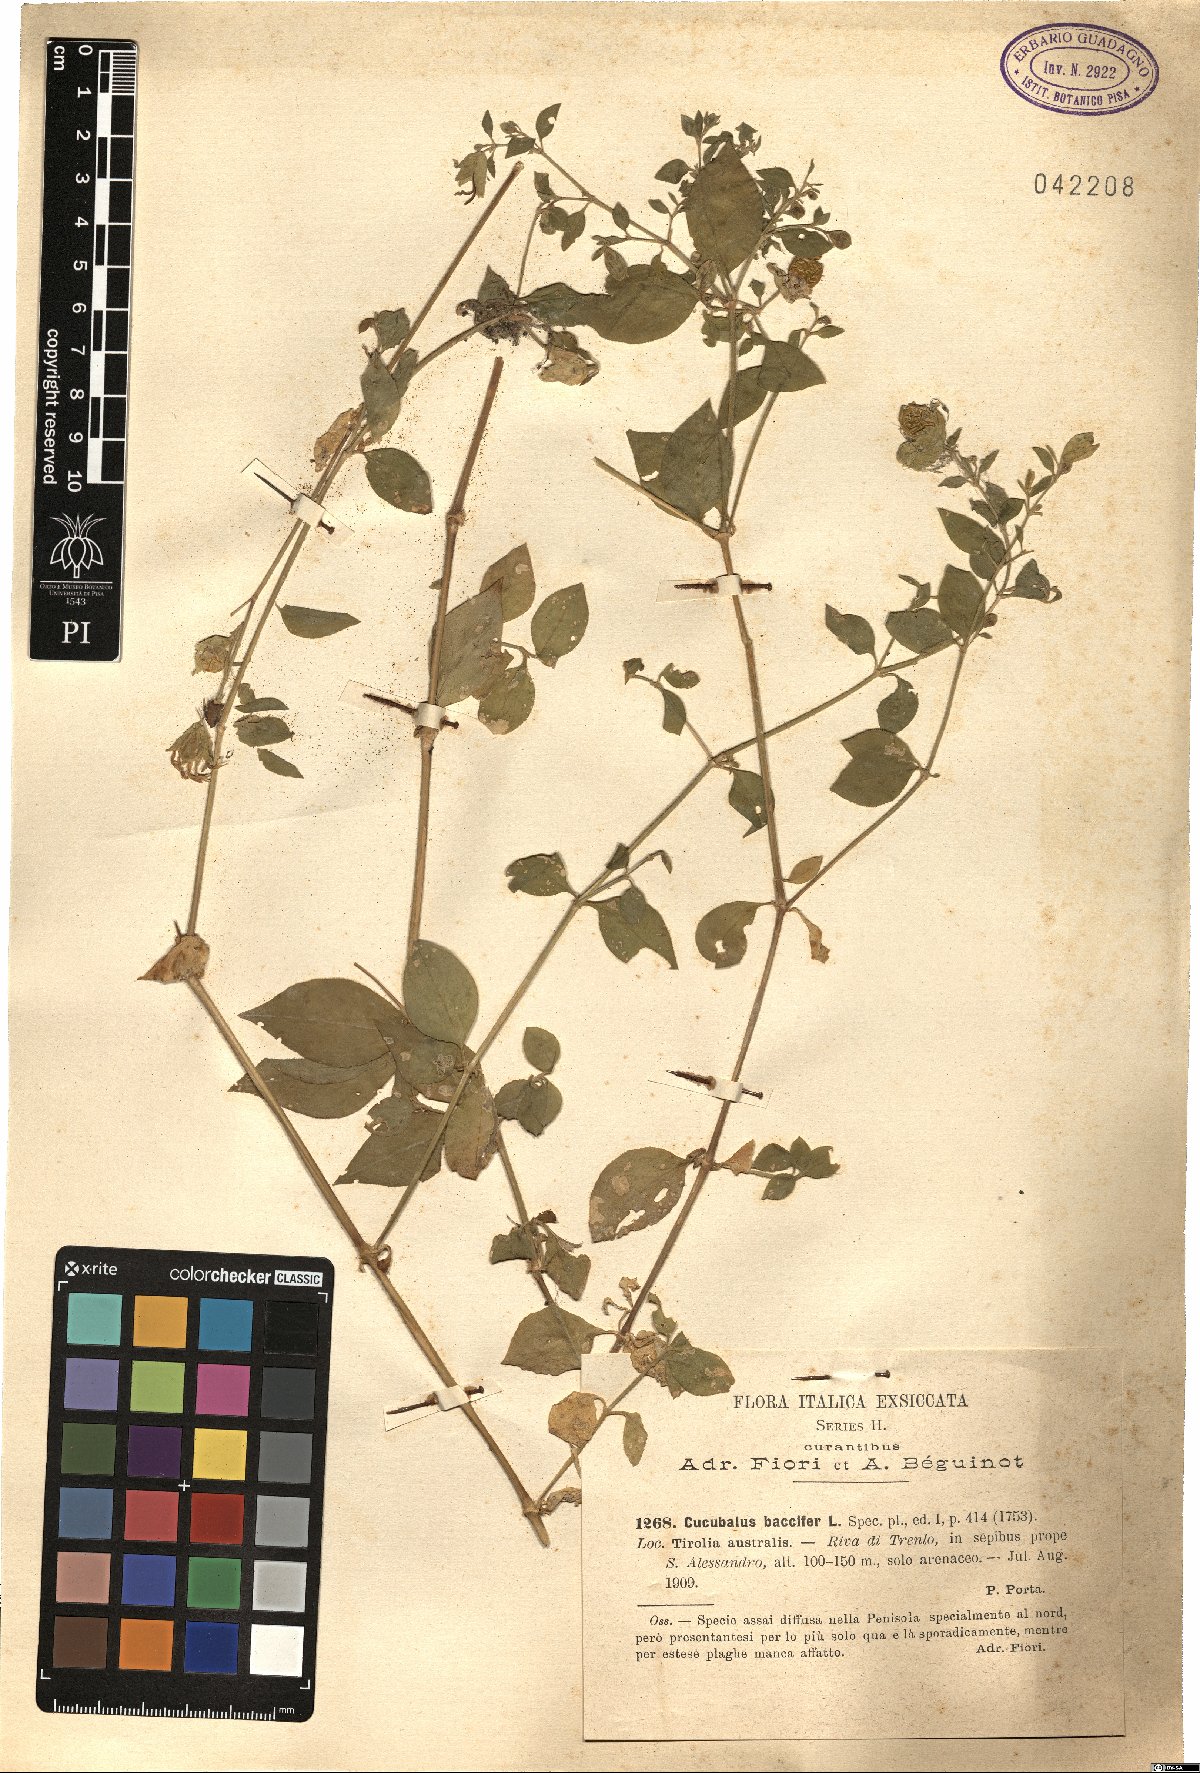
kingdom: Plantae
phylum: Tracheophyta
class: Magnoliopsida
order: Caryophyllales
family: Caryophyllaceae
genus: Silene
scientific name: Silene baccifera
